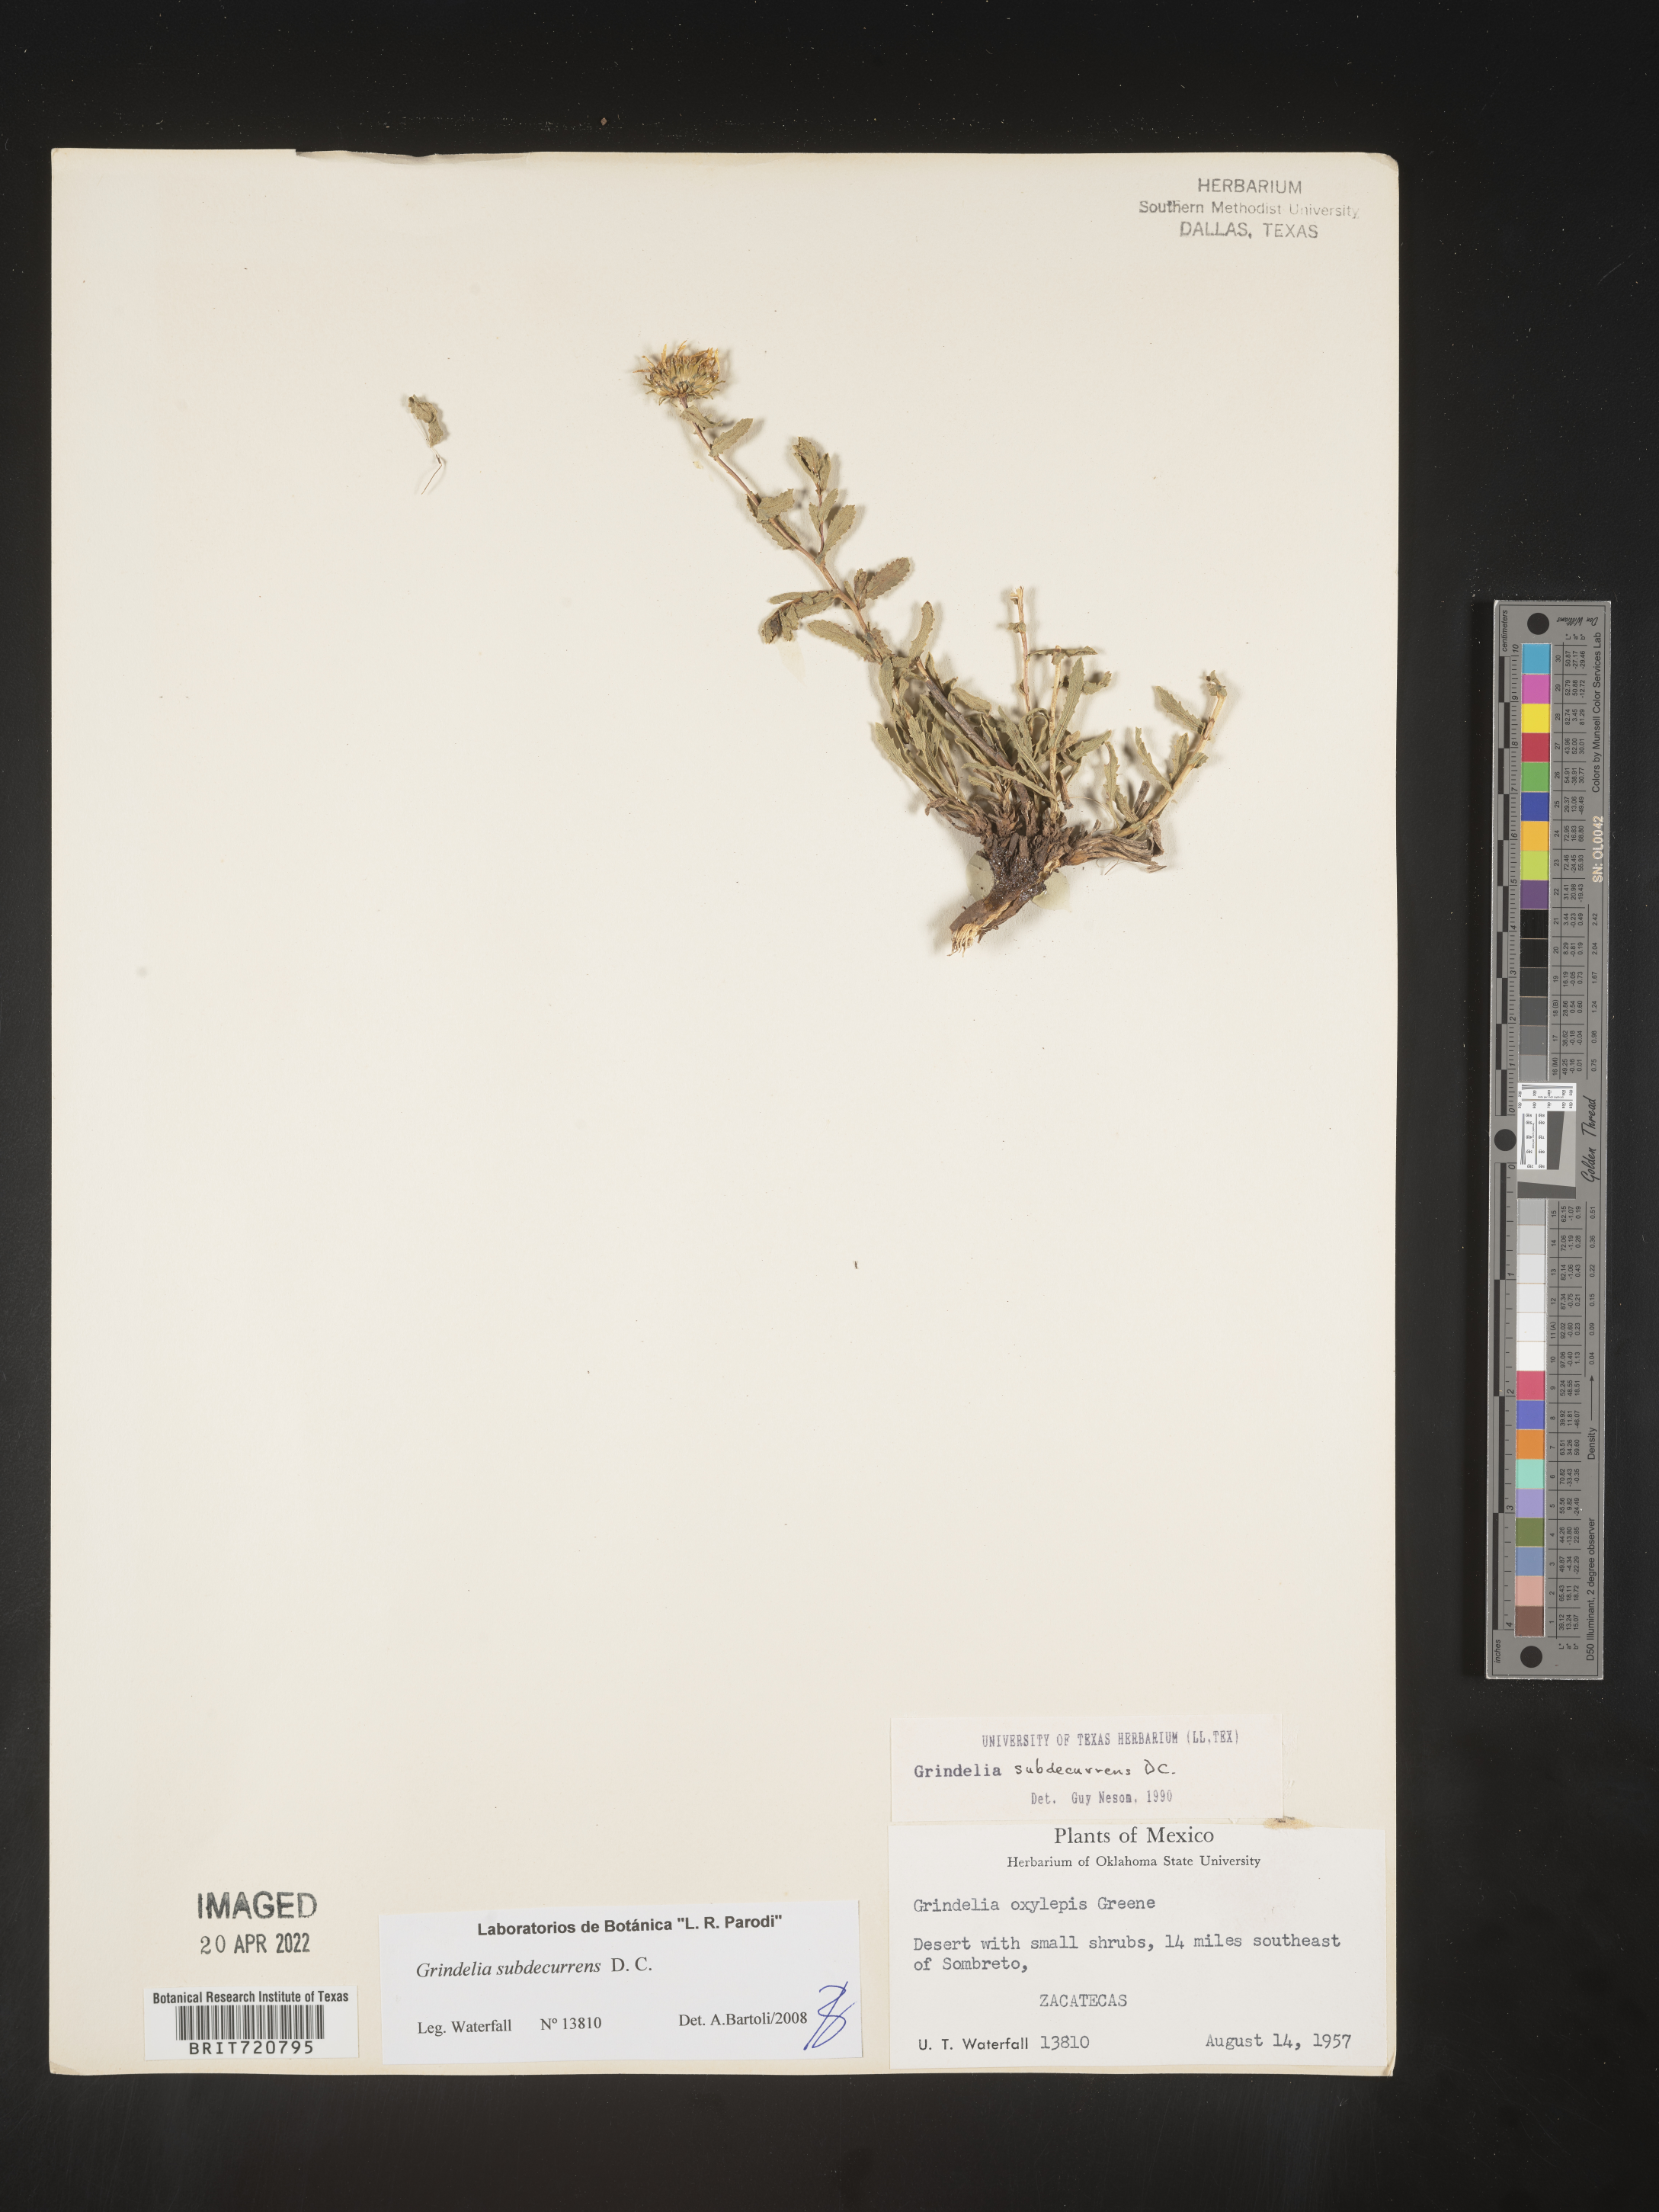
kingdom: Plantae
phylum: Tracheophyta
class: Magnoliopsida
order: Asterales
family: Asteraceae
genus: Grindelia
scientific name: Grindelia
